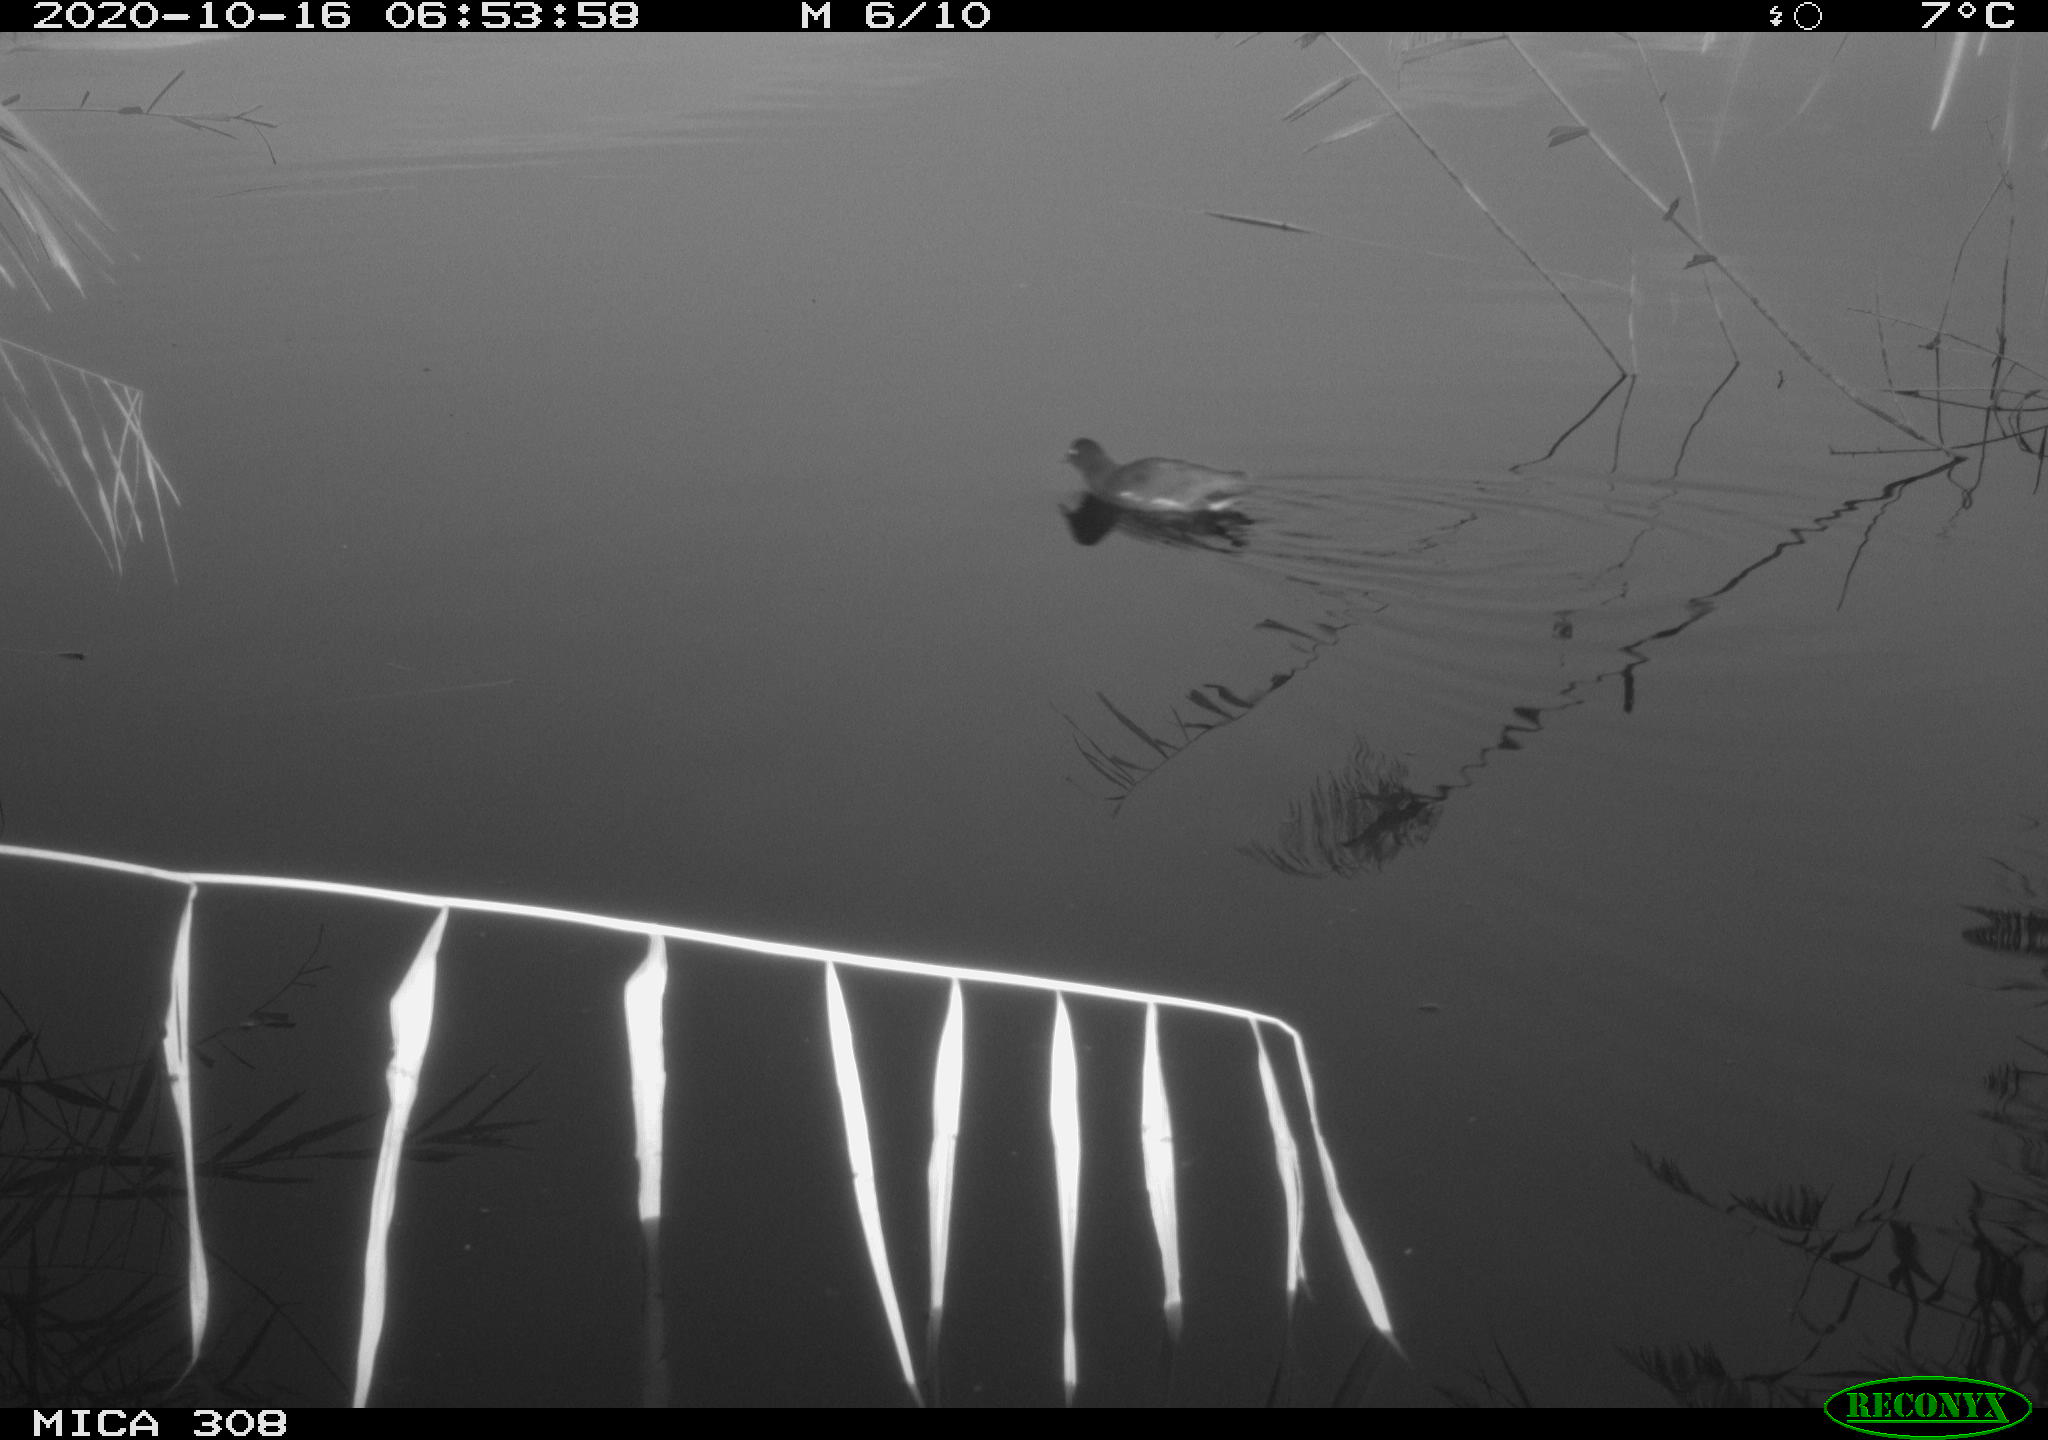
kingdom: Animalia
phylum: Chordata
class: Aves
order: Gruiformes
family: Rallidae
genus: Gallinula
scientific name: Gallinula chloropus
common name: Common moorhen
